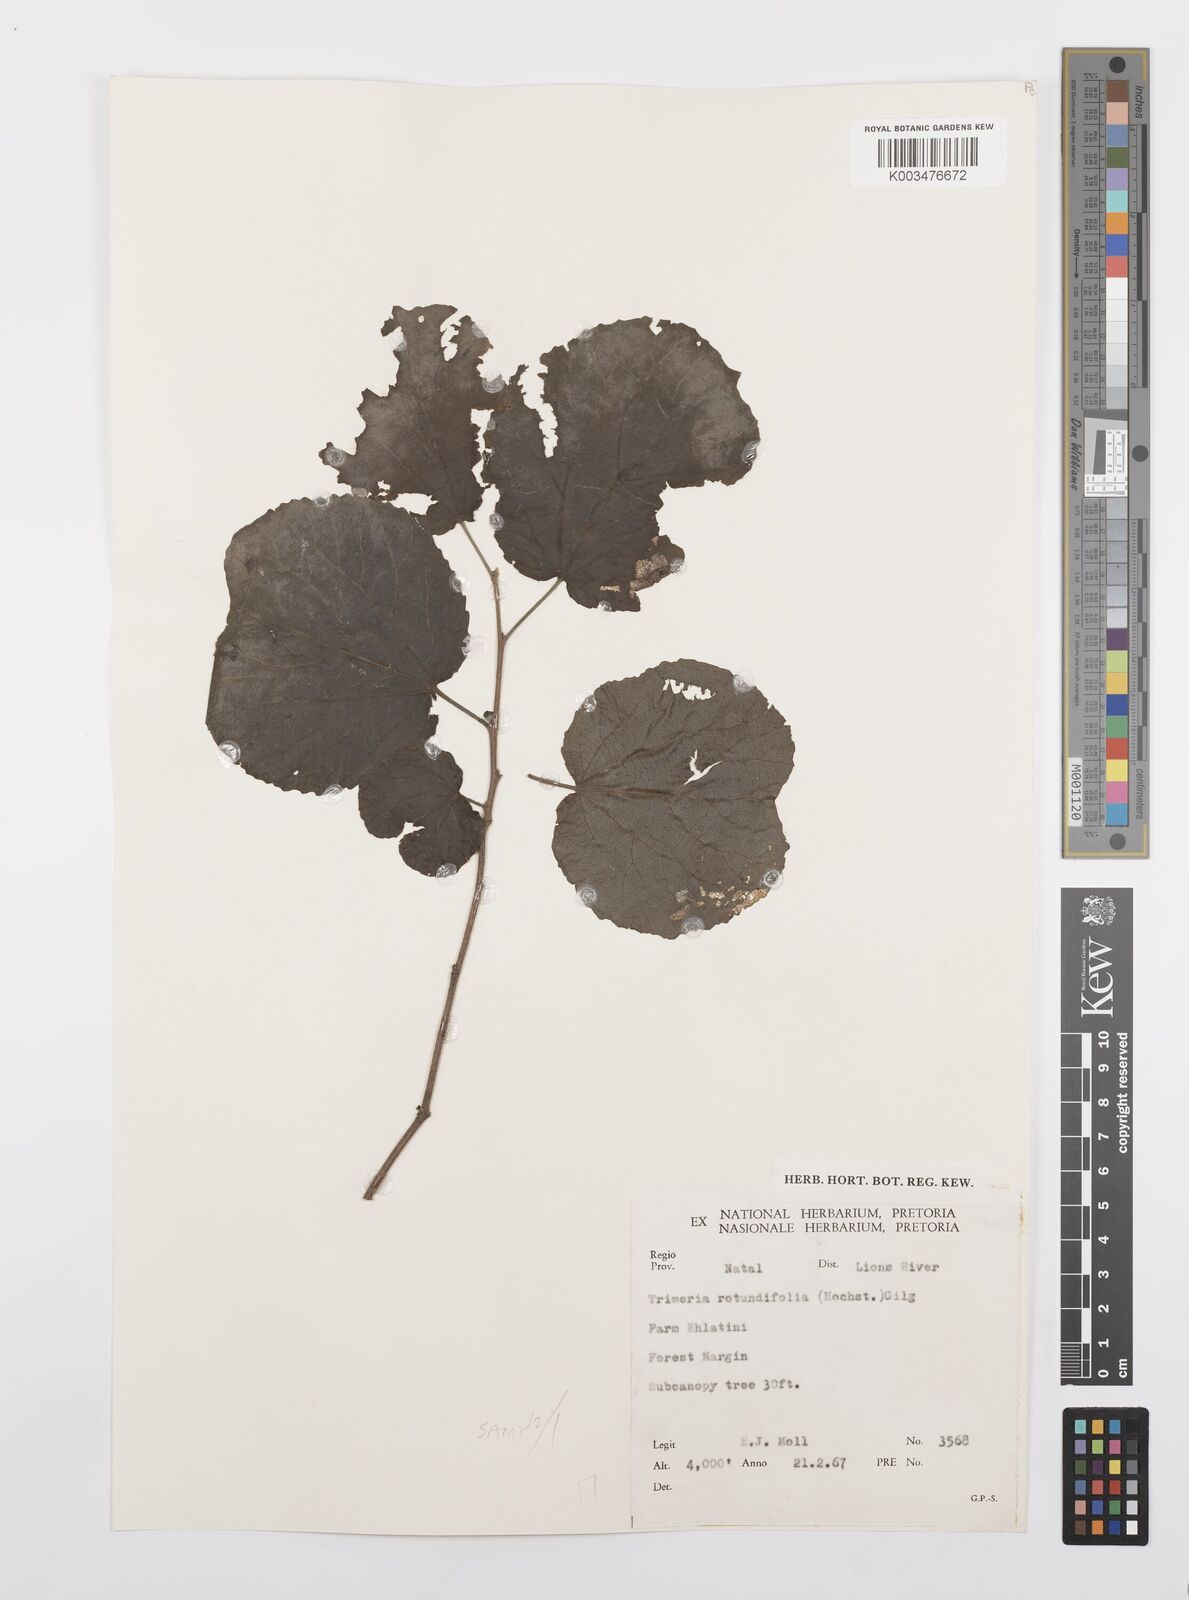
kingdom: Plantae
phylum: Tracheophyta
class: Magnoliopsida
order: Malpighiales
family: Salicaceae
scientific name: Salicaceae
